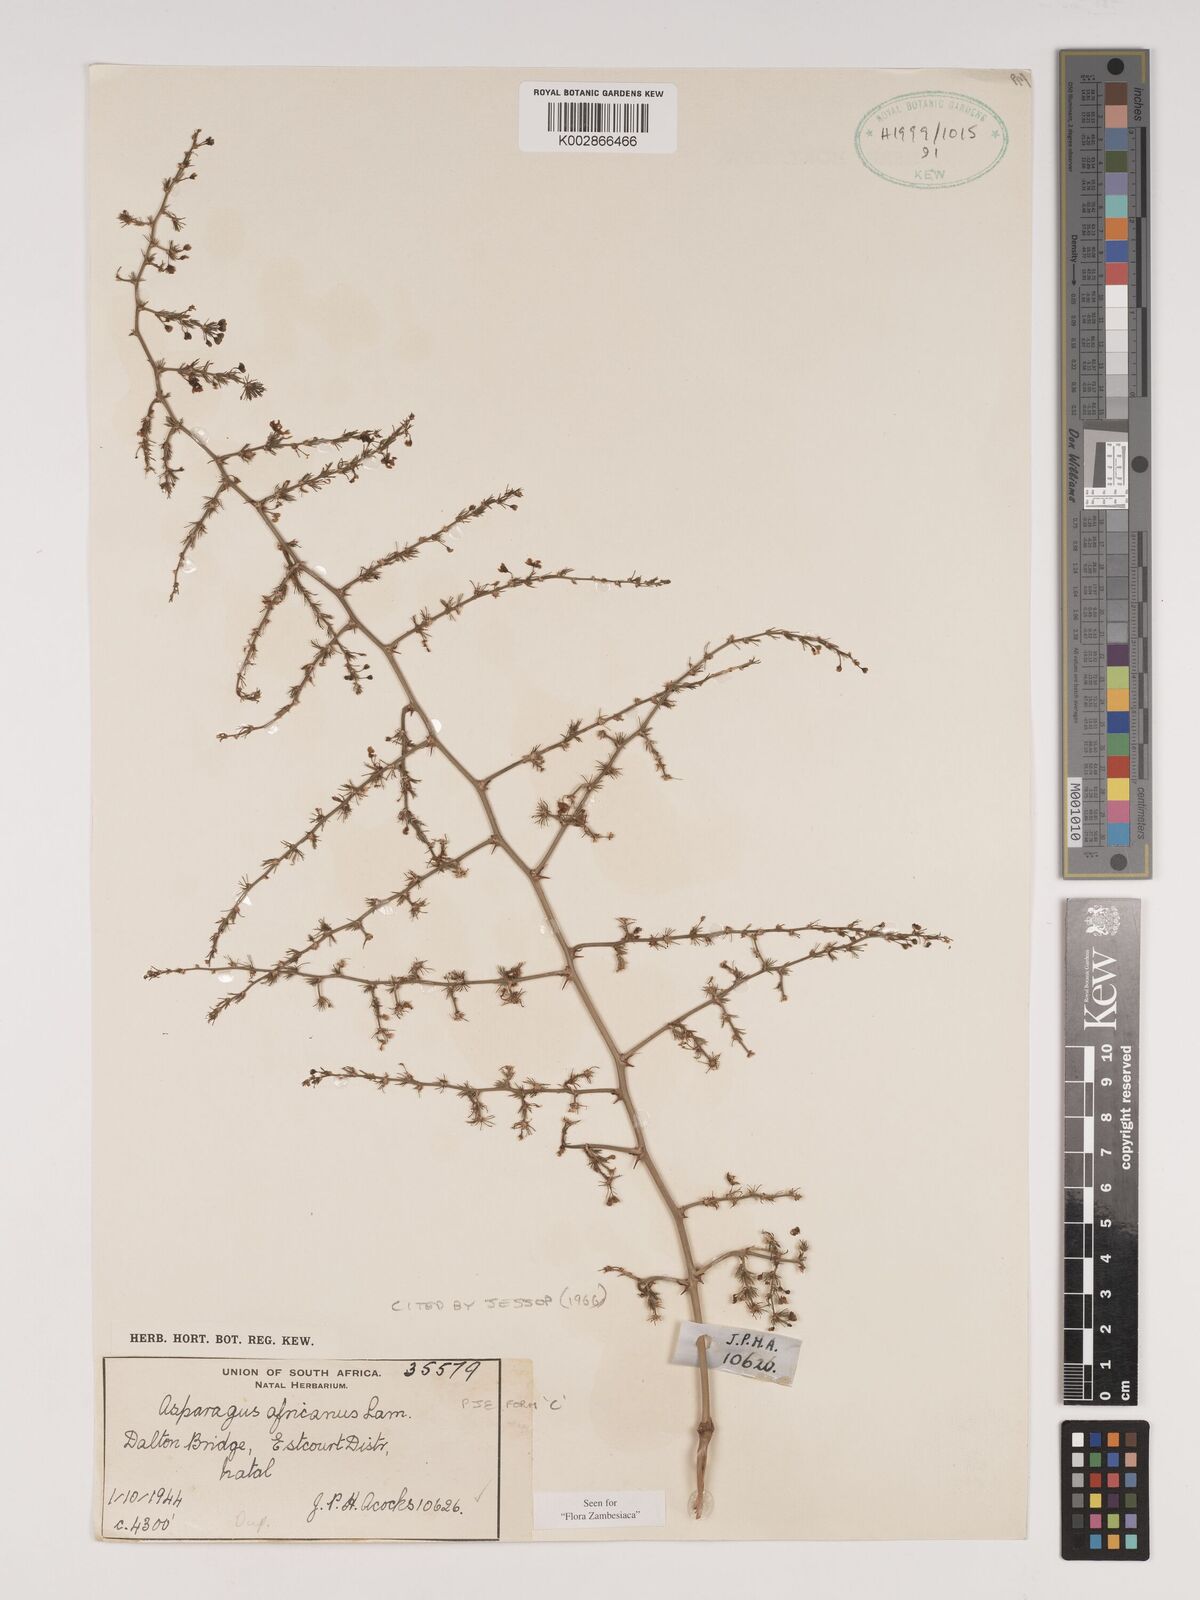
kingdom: Plantae
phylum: Tracheophyta
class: Liliopsida
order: Asparagales
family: Asparagaceae
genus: Asparagus
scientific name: Asparagus africanus
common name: Asparagus-fern
